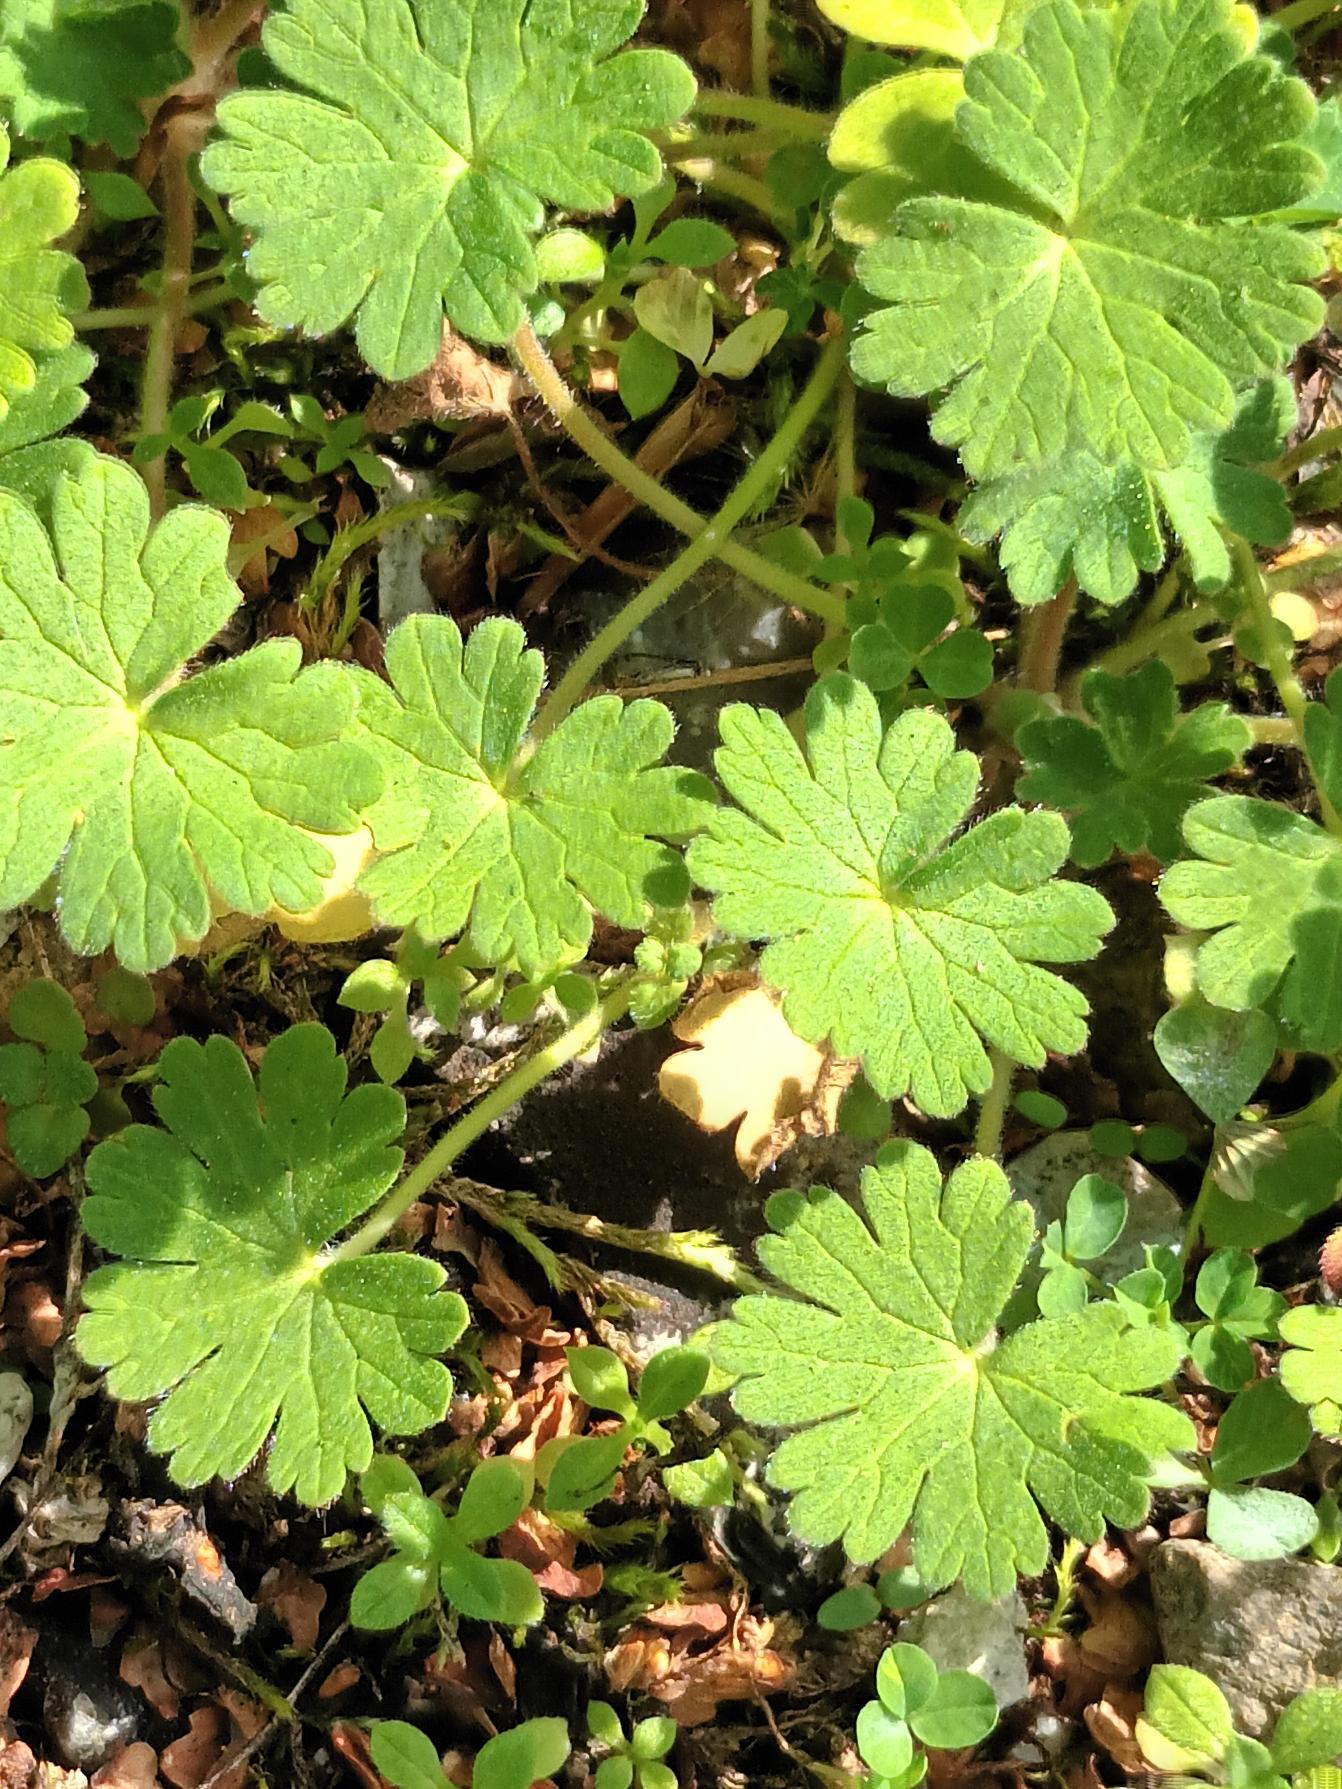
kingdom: Plantae
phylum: Tracheophyta
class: Magnoliopsida
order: Geraniales
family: Geraniaceae
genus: Geranium
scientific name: Geranium pusillum
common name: Liden storkenæb
